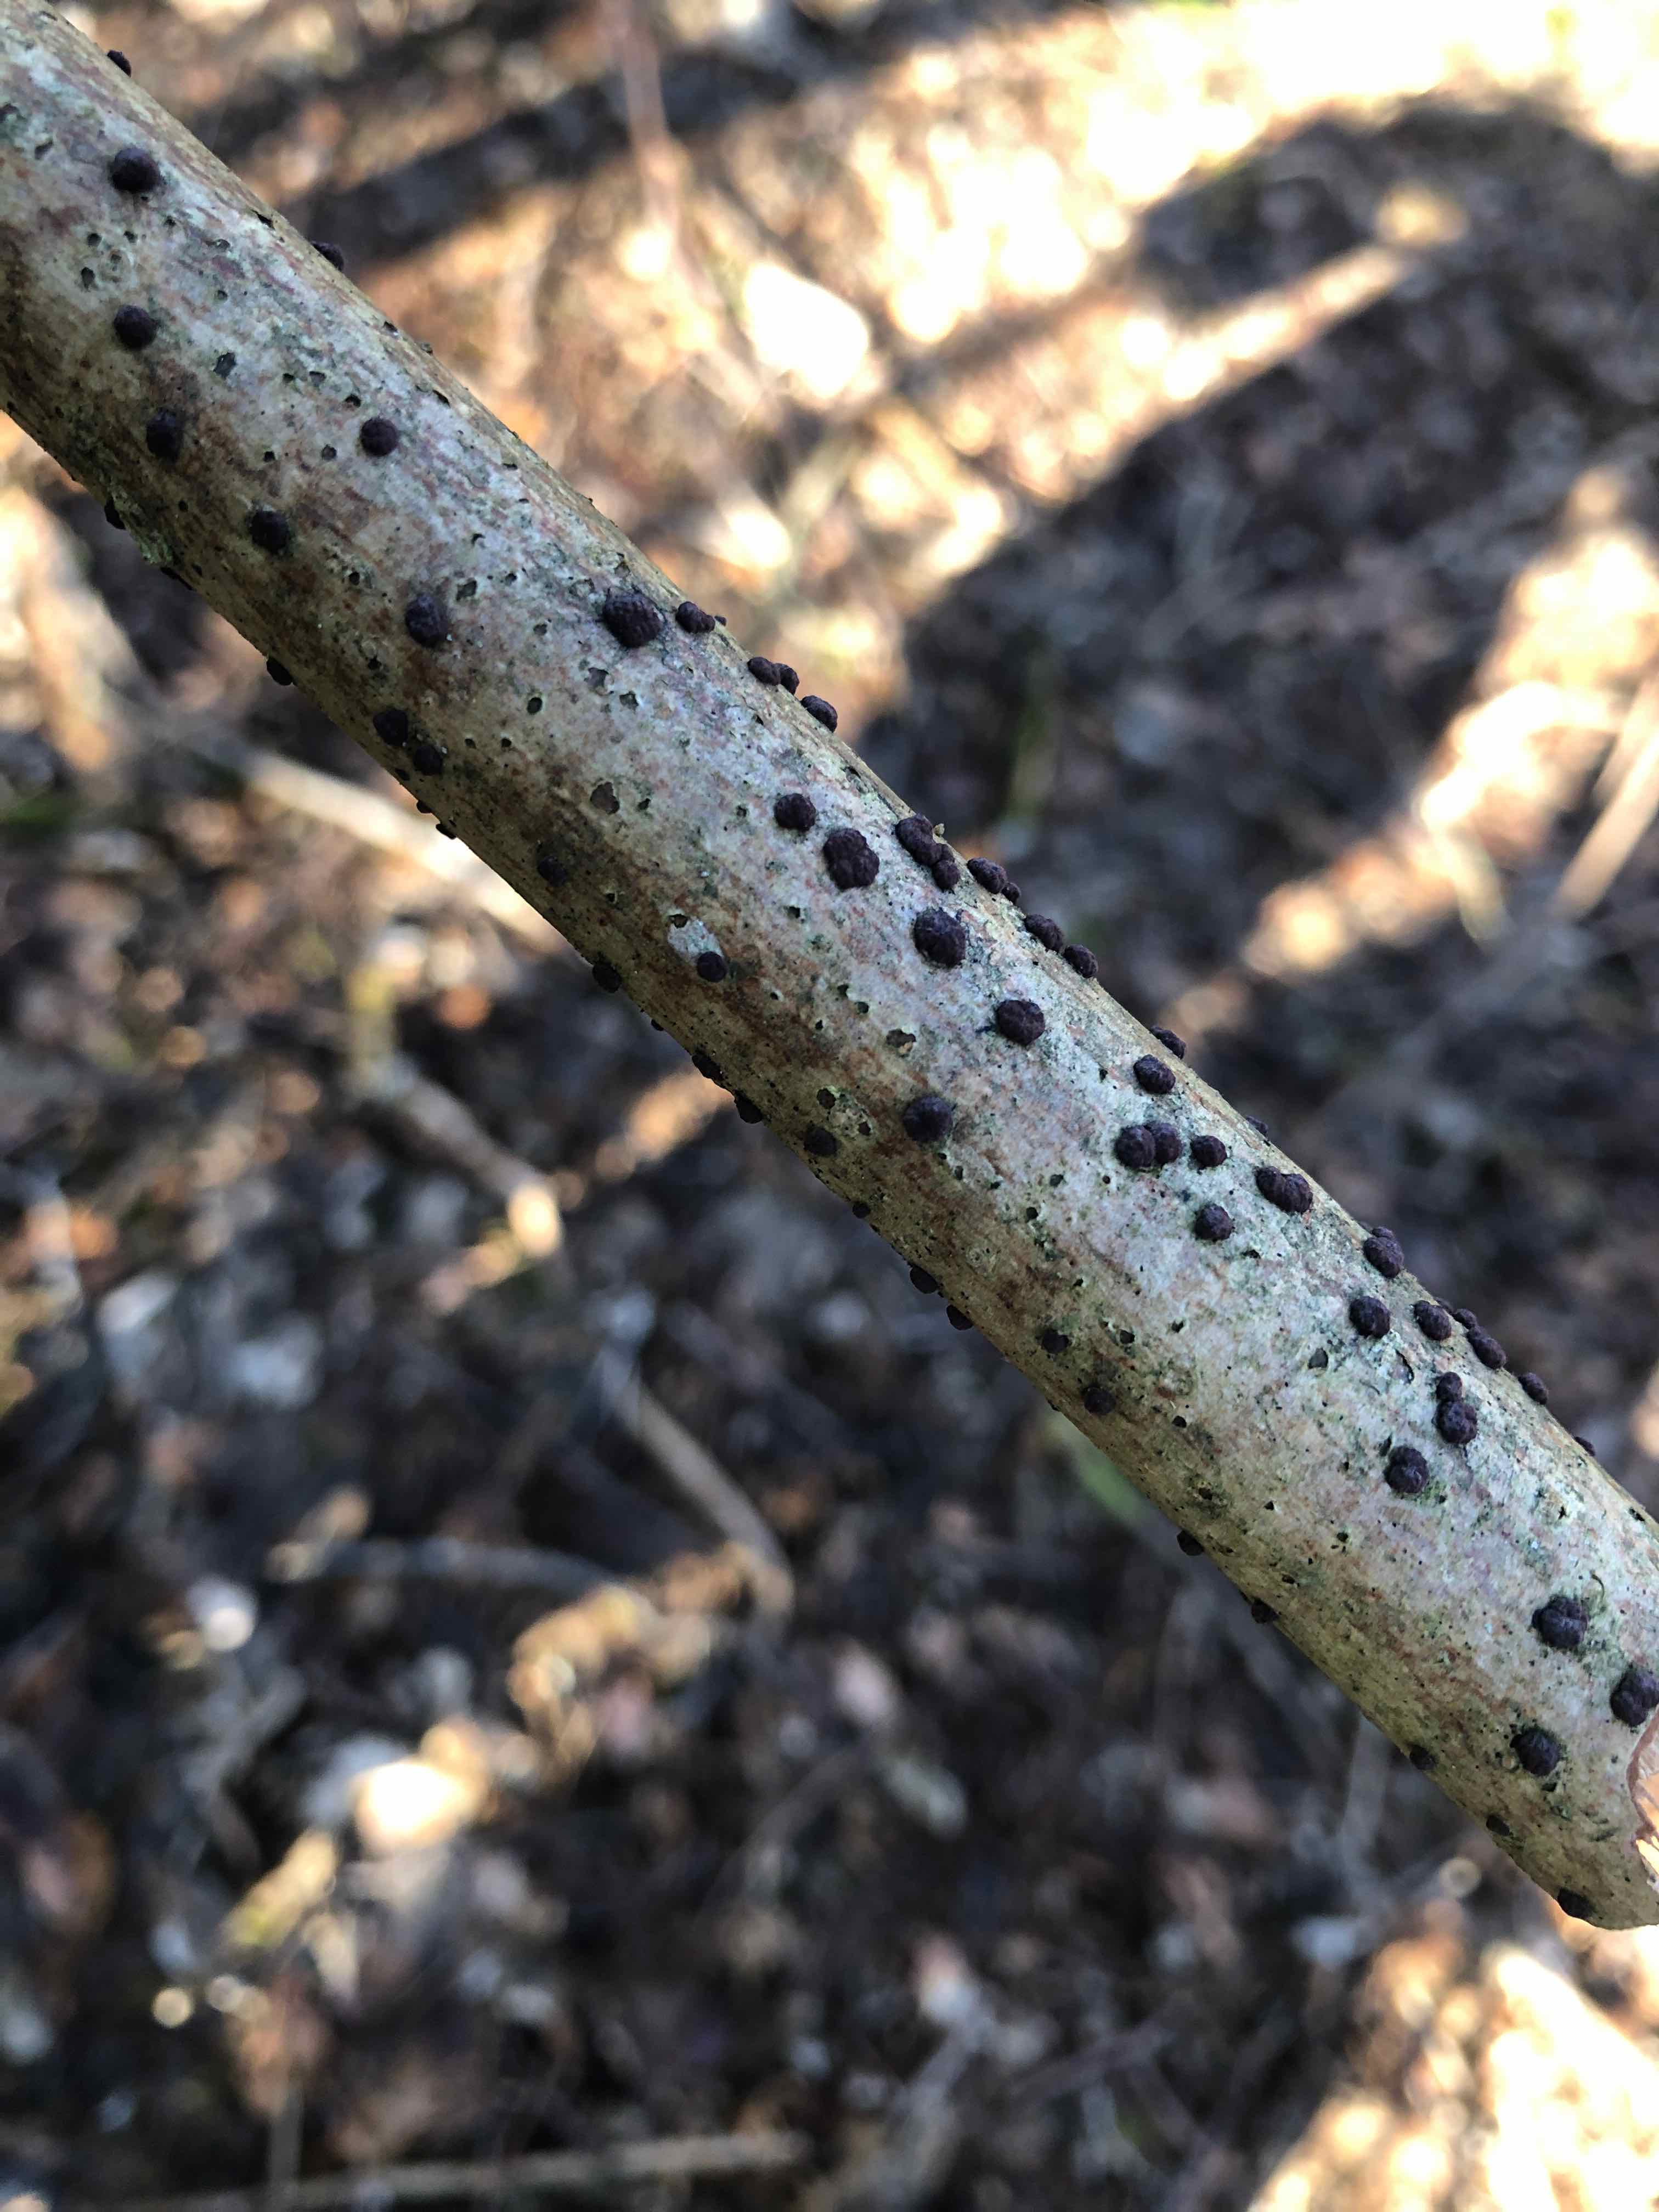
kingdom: Fungi
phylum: Ascomycota
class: Sordariomycetes
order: Xylariales
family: Hypoxylaceae
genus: Hypoxylon
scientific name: Hypoxylon fuscum
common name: kegleformet kulbær
